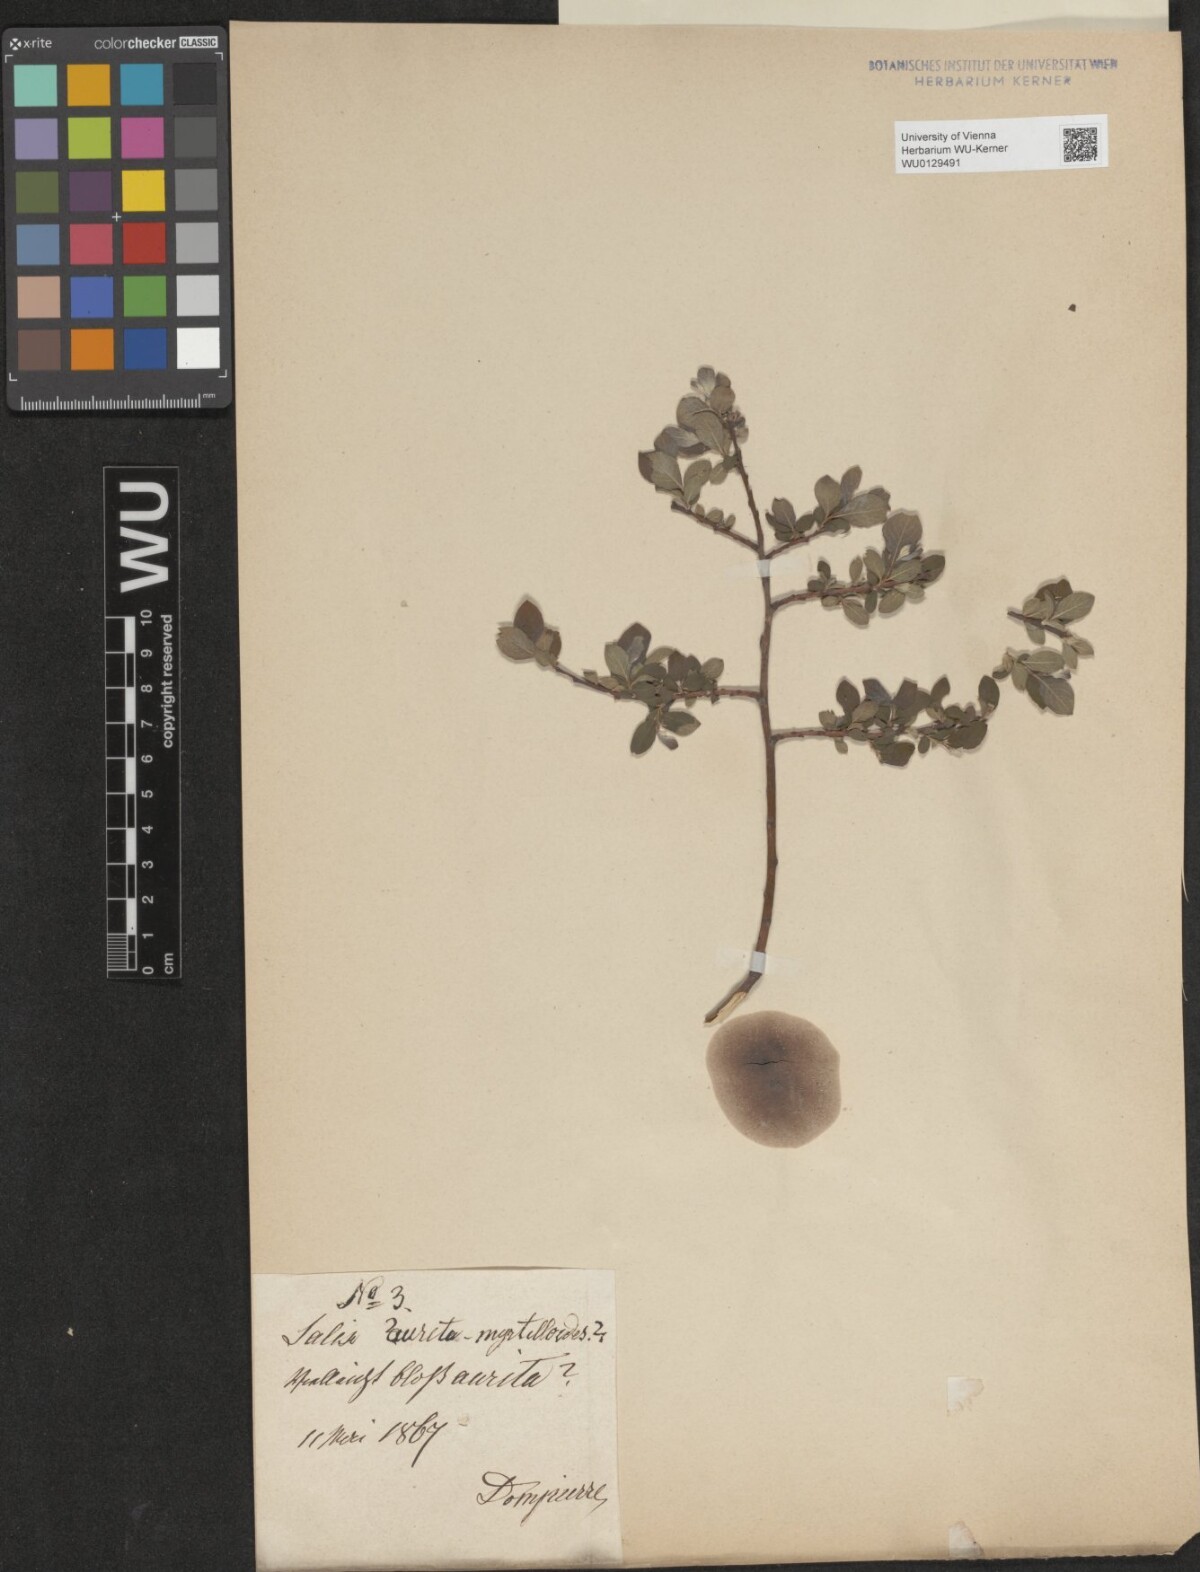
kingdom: Plantae
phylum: Tracheophyta
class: Magnoliopsida
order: Malpighiales
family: Salicaceae
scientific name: Salicaceae
